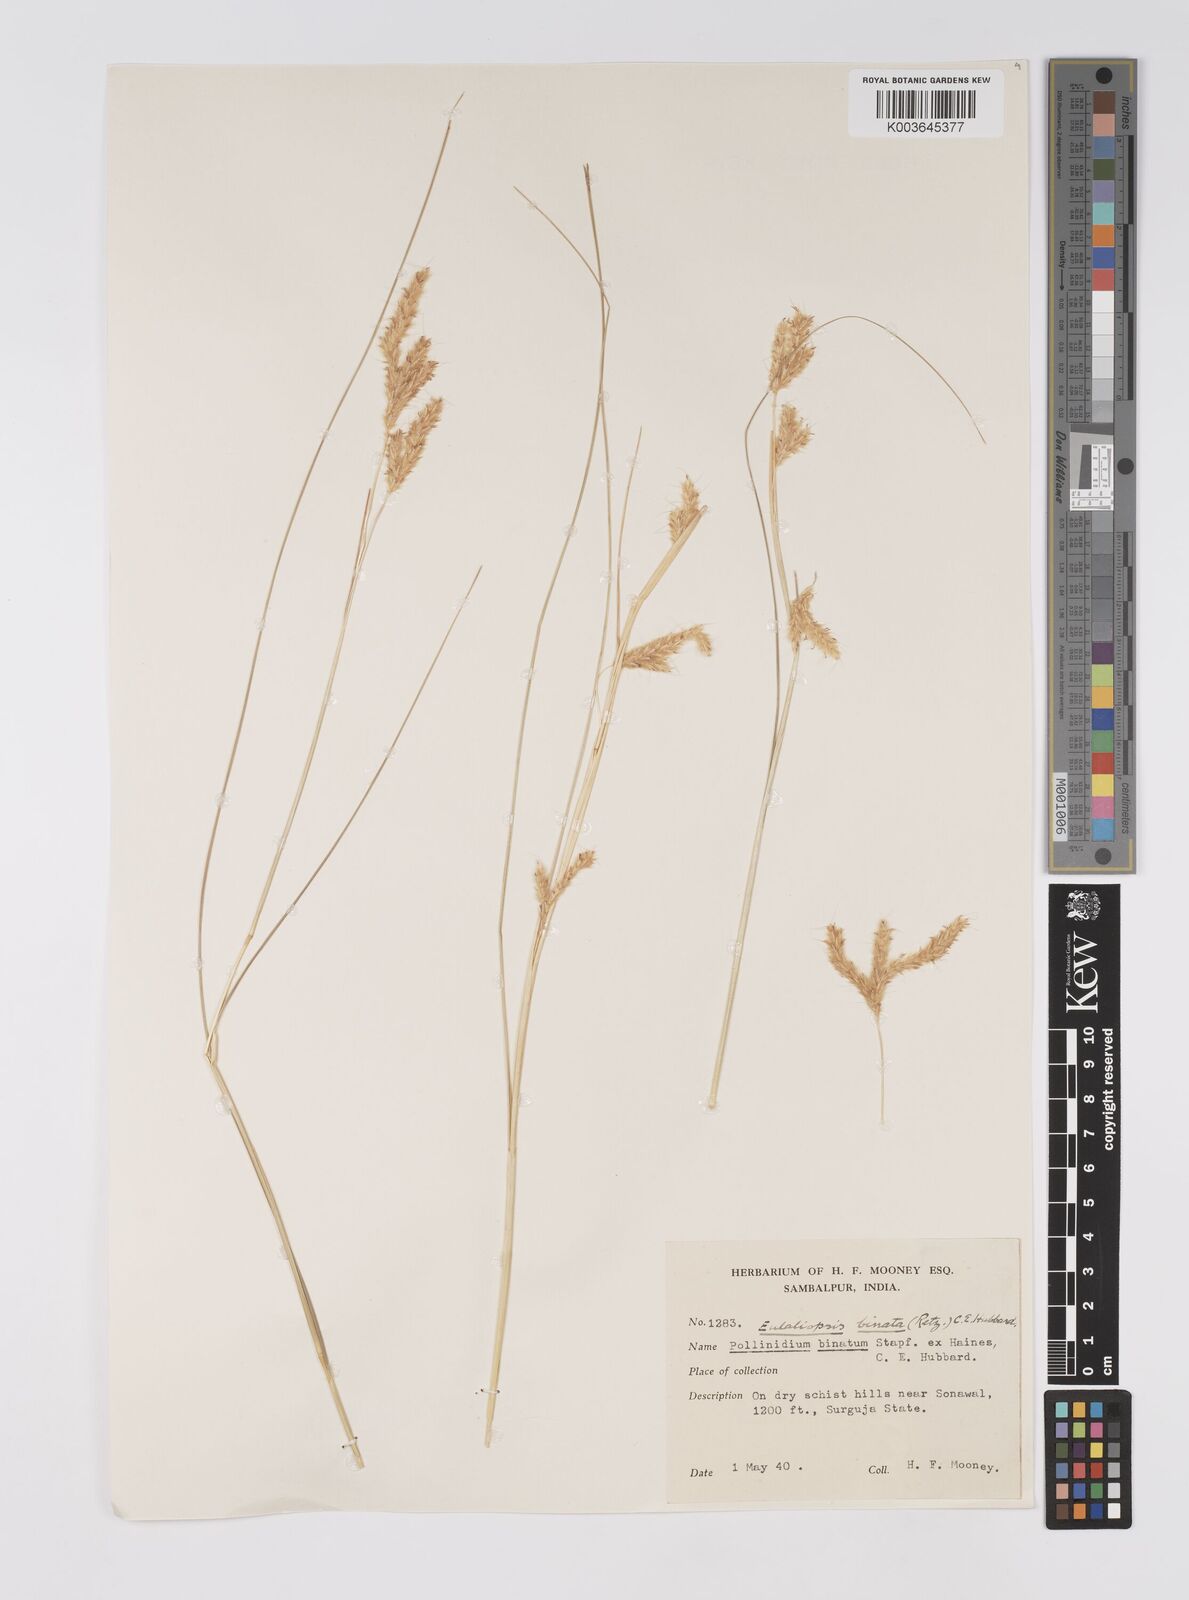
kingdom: Plantae
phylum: Tracheophyta
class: Liliopsida
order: Poales
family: Poaceae
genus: Eulaliopsis
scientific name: Eulaliopsis binata
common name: Baib grass
